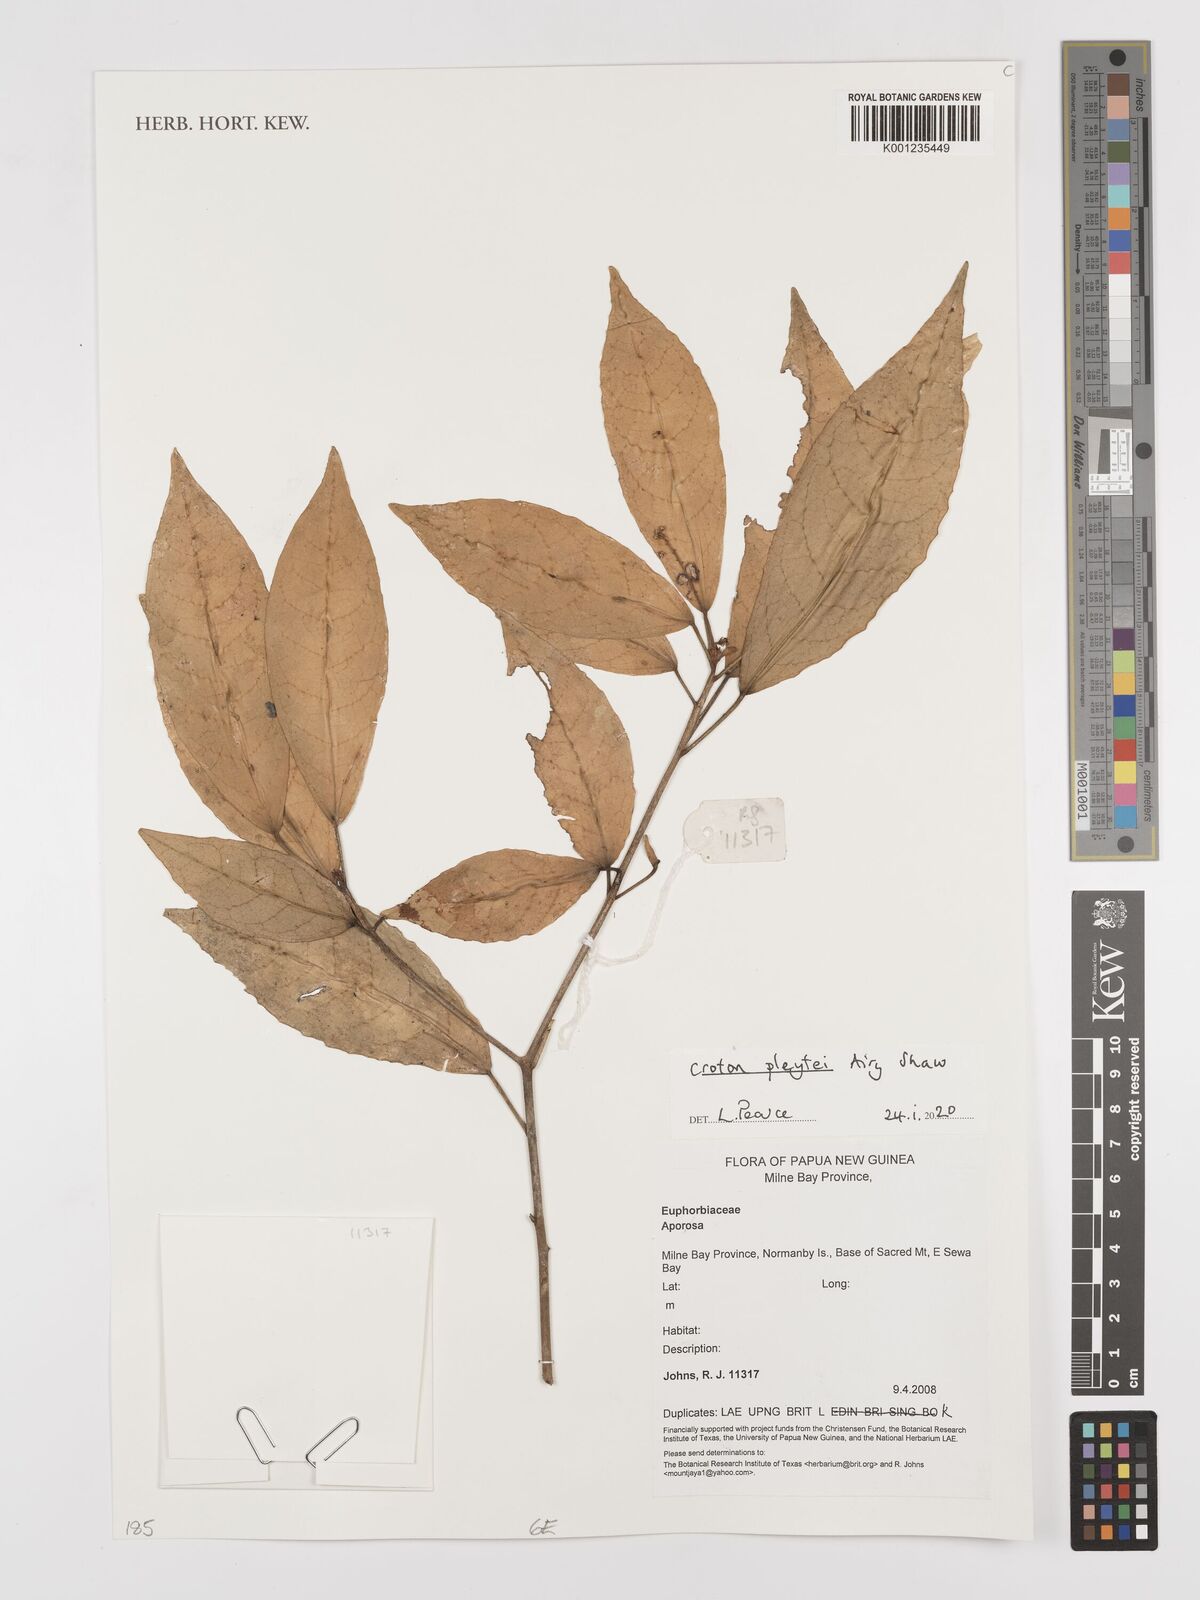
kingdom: Plantae
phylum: Tracheophyta
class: Magnoliopsida
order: Malpighiales
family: Euphorbiaceae
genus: Croton
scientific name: Croton pleytei
